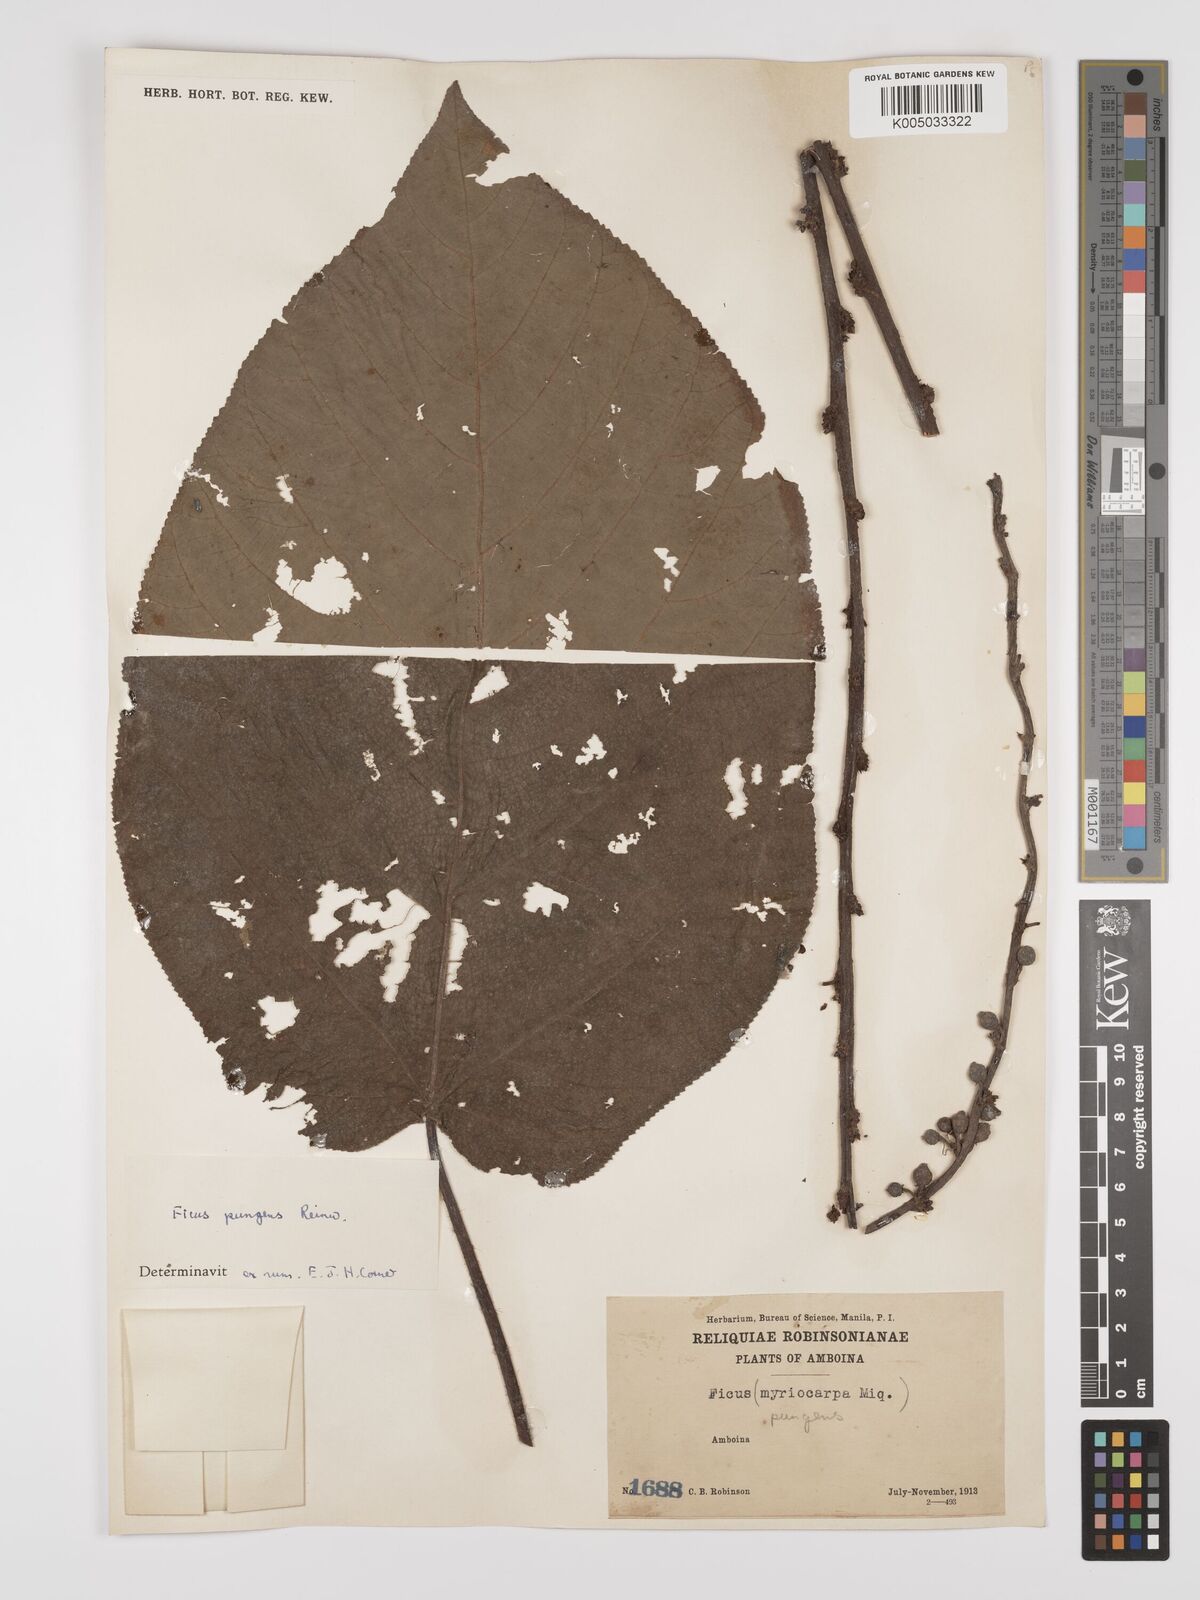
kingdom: Plantae
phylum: Tracheophyta
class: Magnoliopsida
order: Rosales
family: Moraceae
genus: Ficus
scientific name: Ficus pungens
